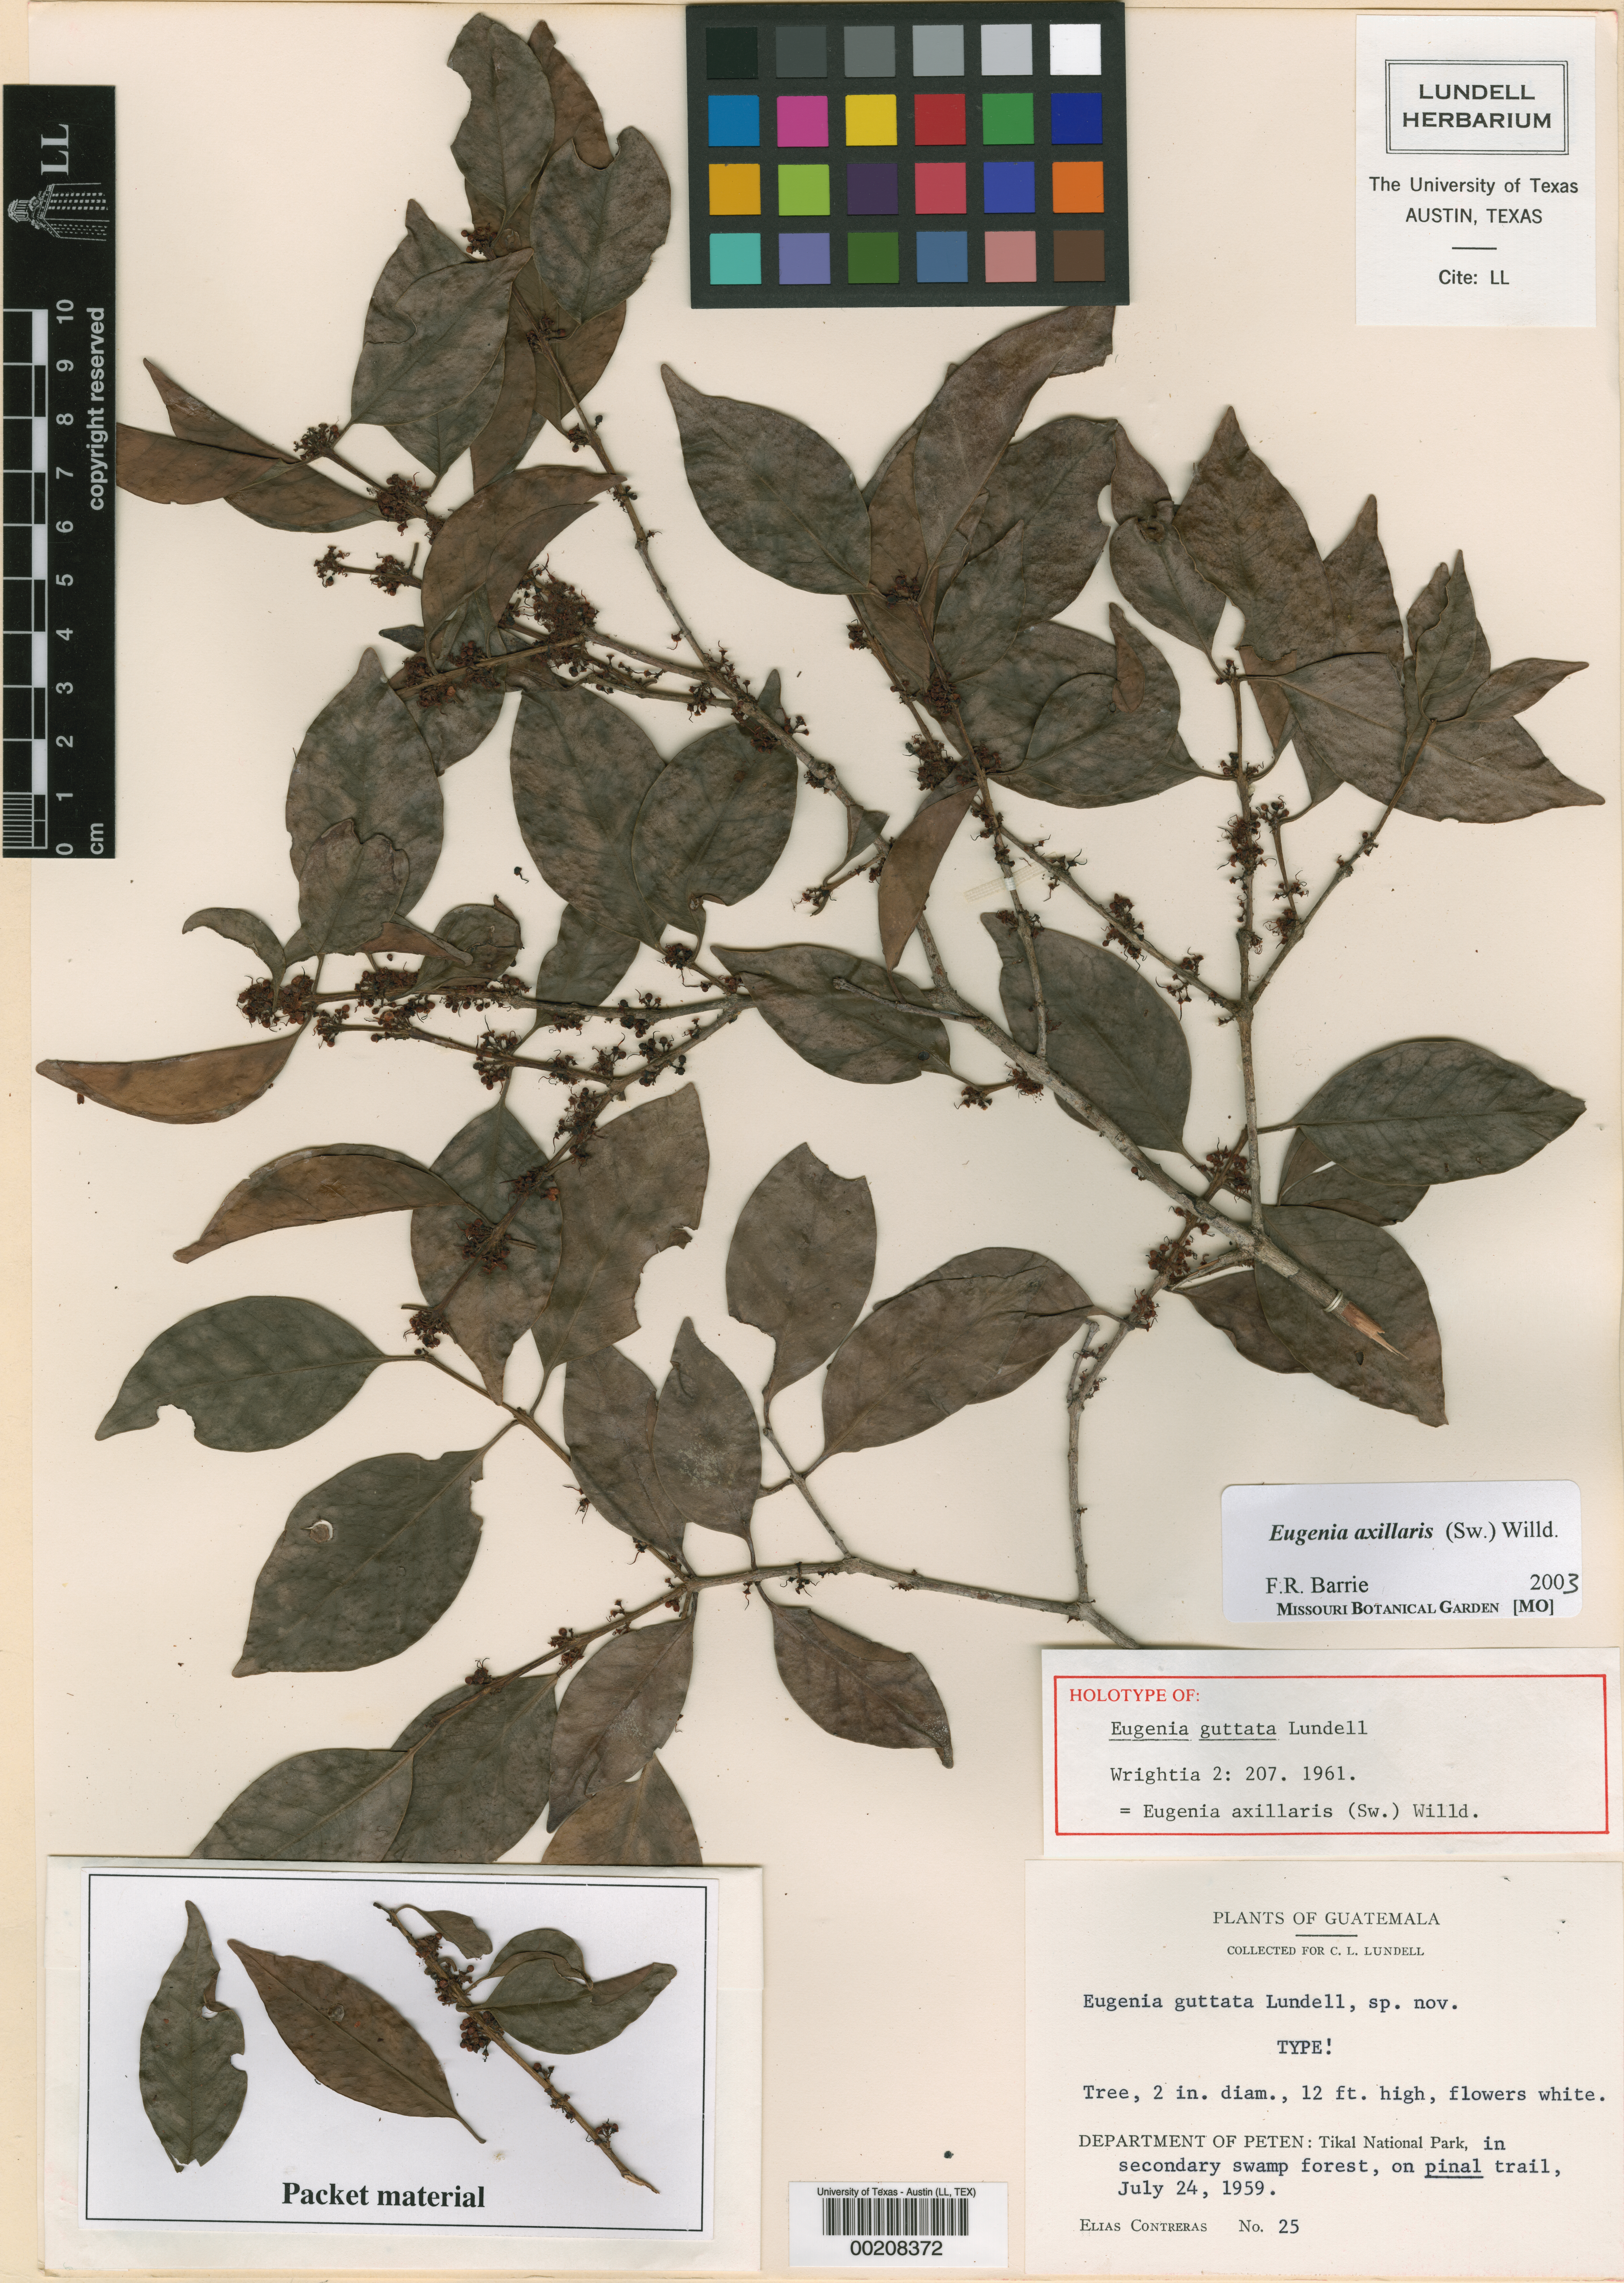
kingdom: Plantae
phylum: Tracheophyta
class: Magnoliopsida
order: Myrtales
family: Myrtaceae
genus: Eugenia
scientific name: Eugenia axillaris
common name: Choaky berry
